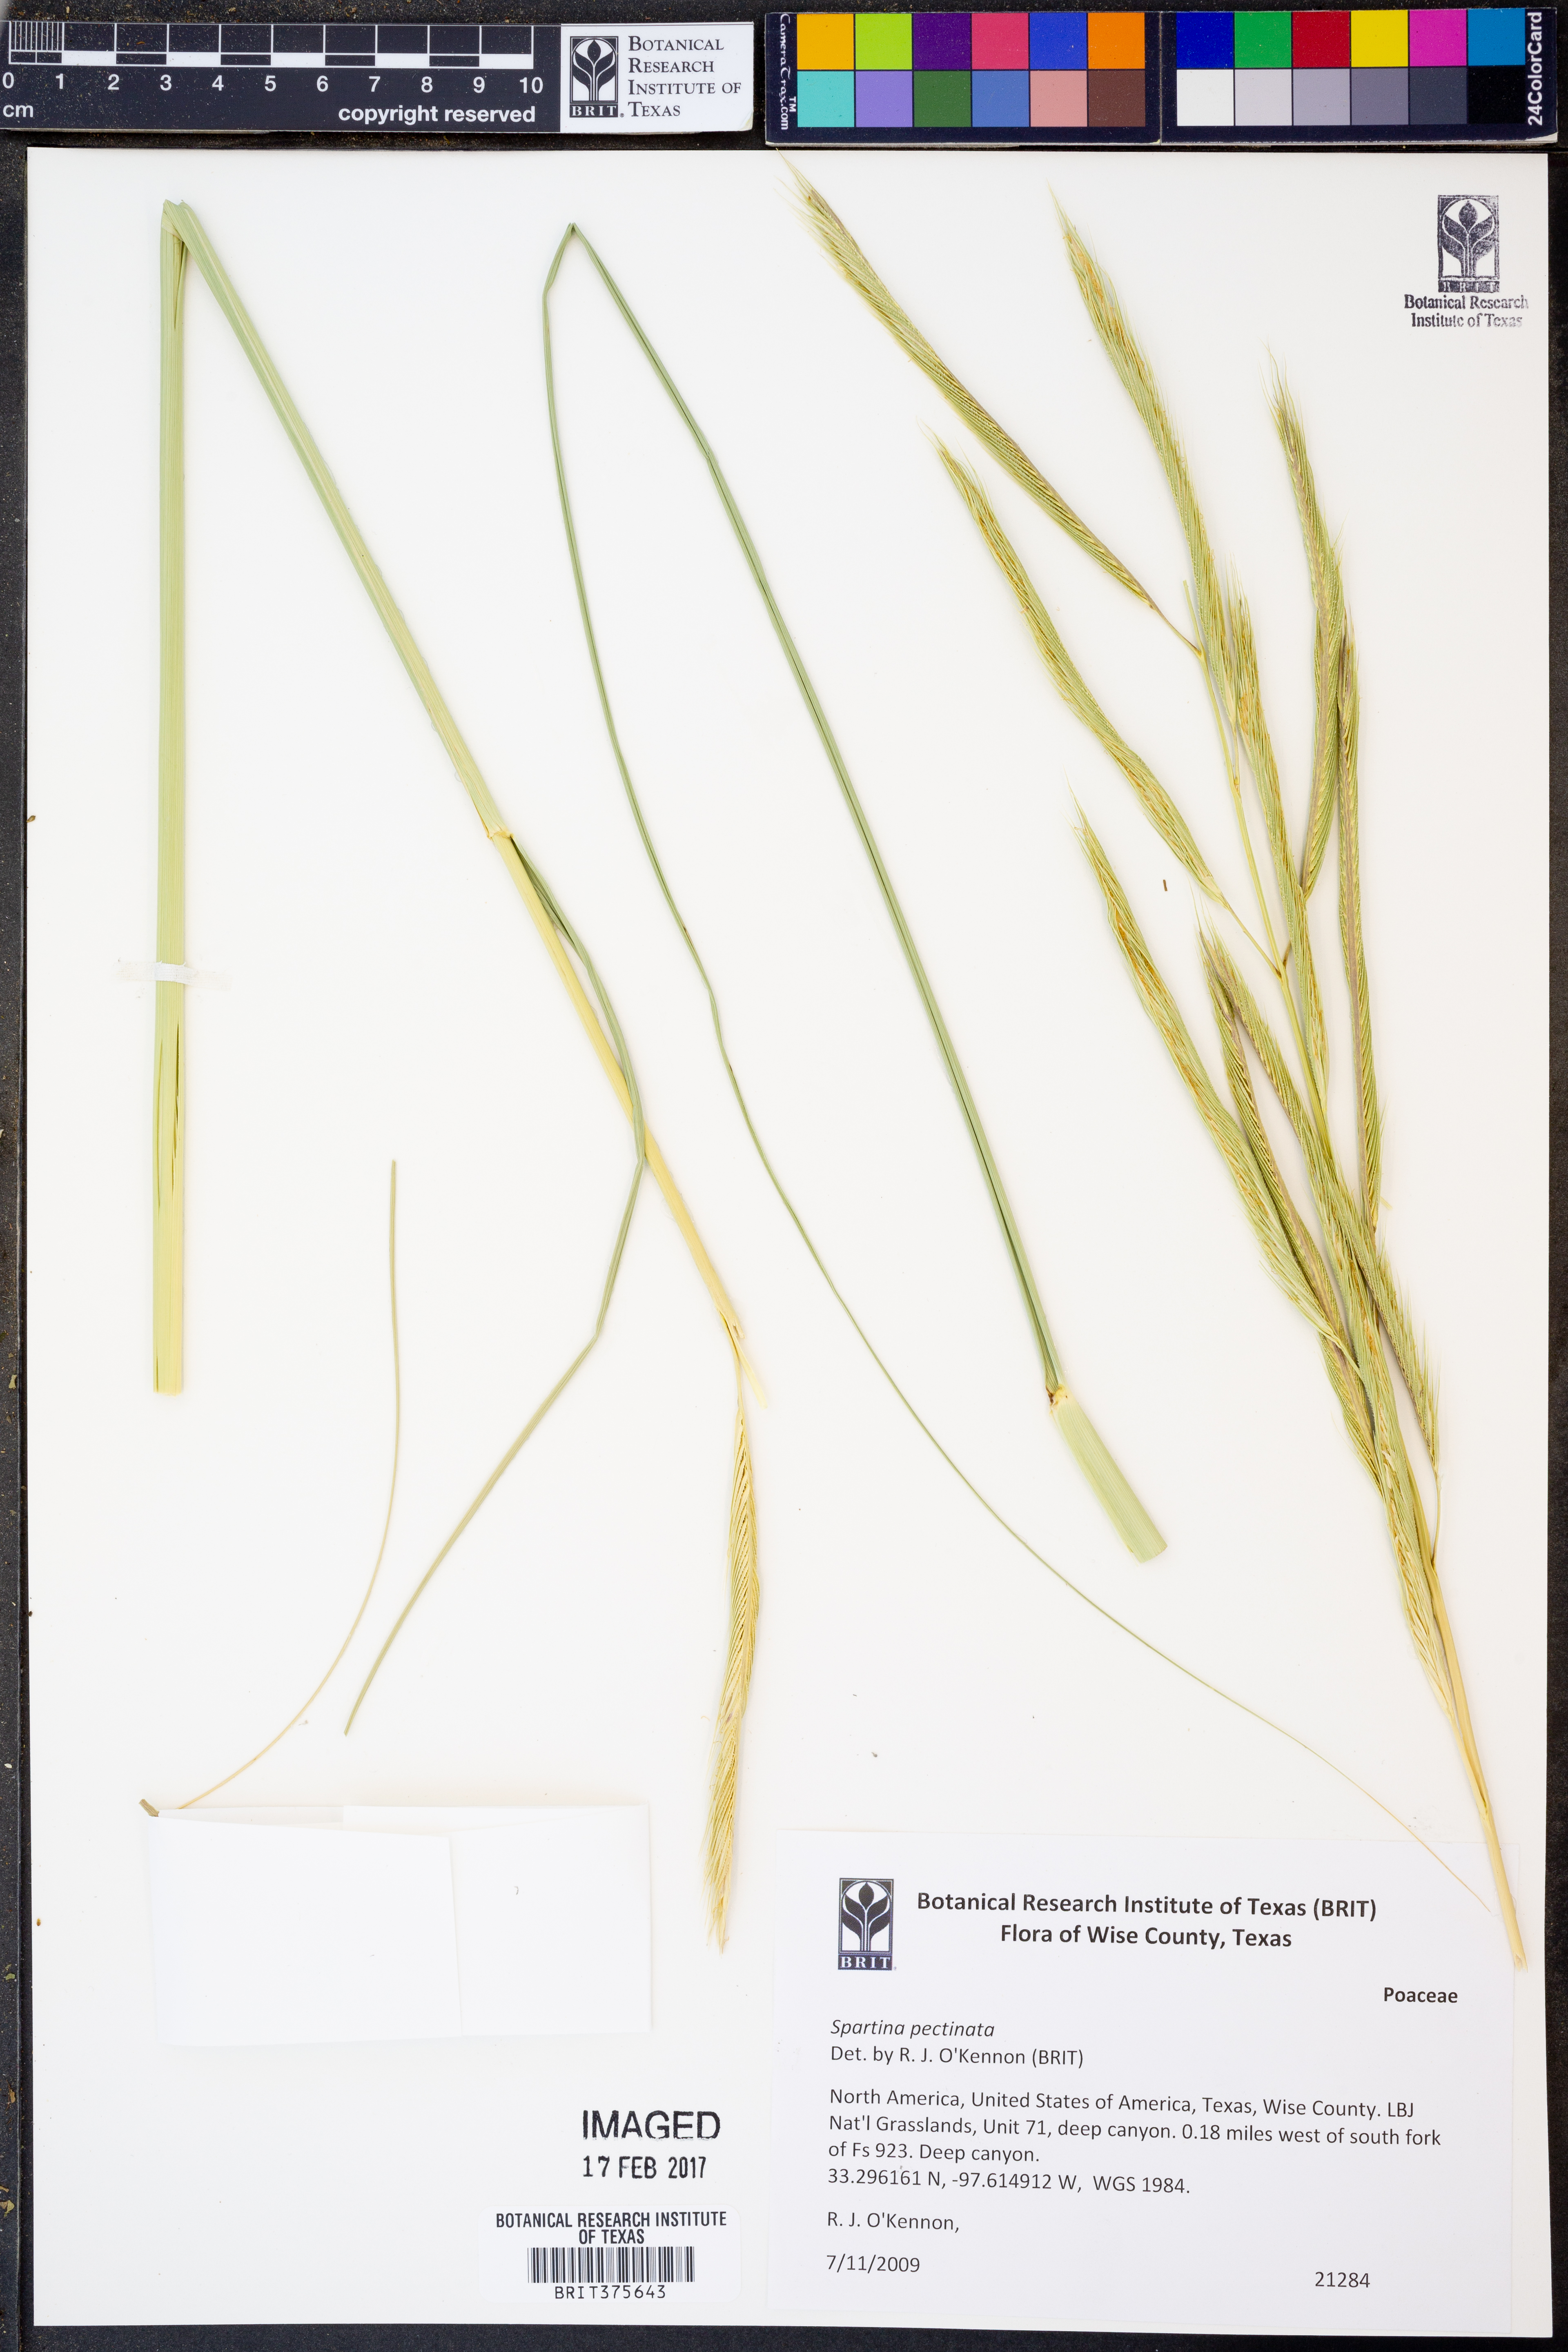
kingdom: Plantae
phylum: Tracheophyta
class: Liliopsida
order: Poales
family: Poaceae
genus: Sporobolus
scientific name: Sporobolus michauxianus
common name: Freshwater cordgrass
